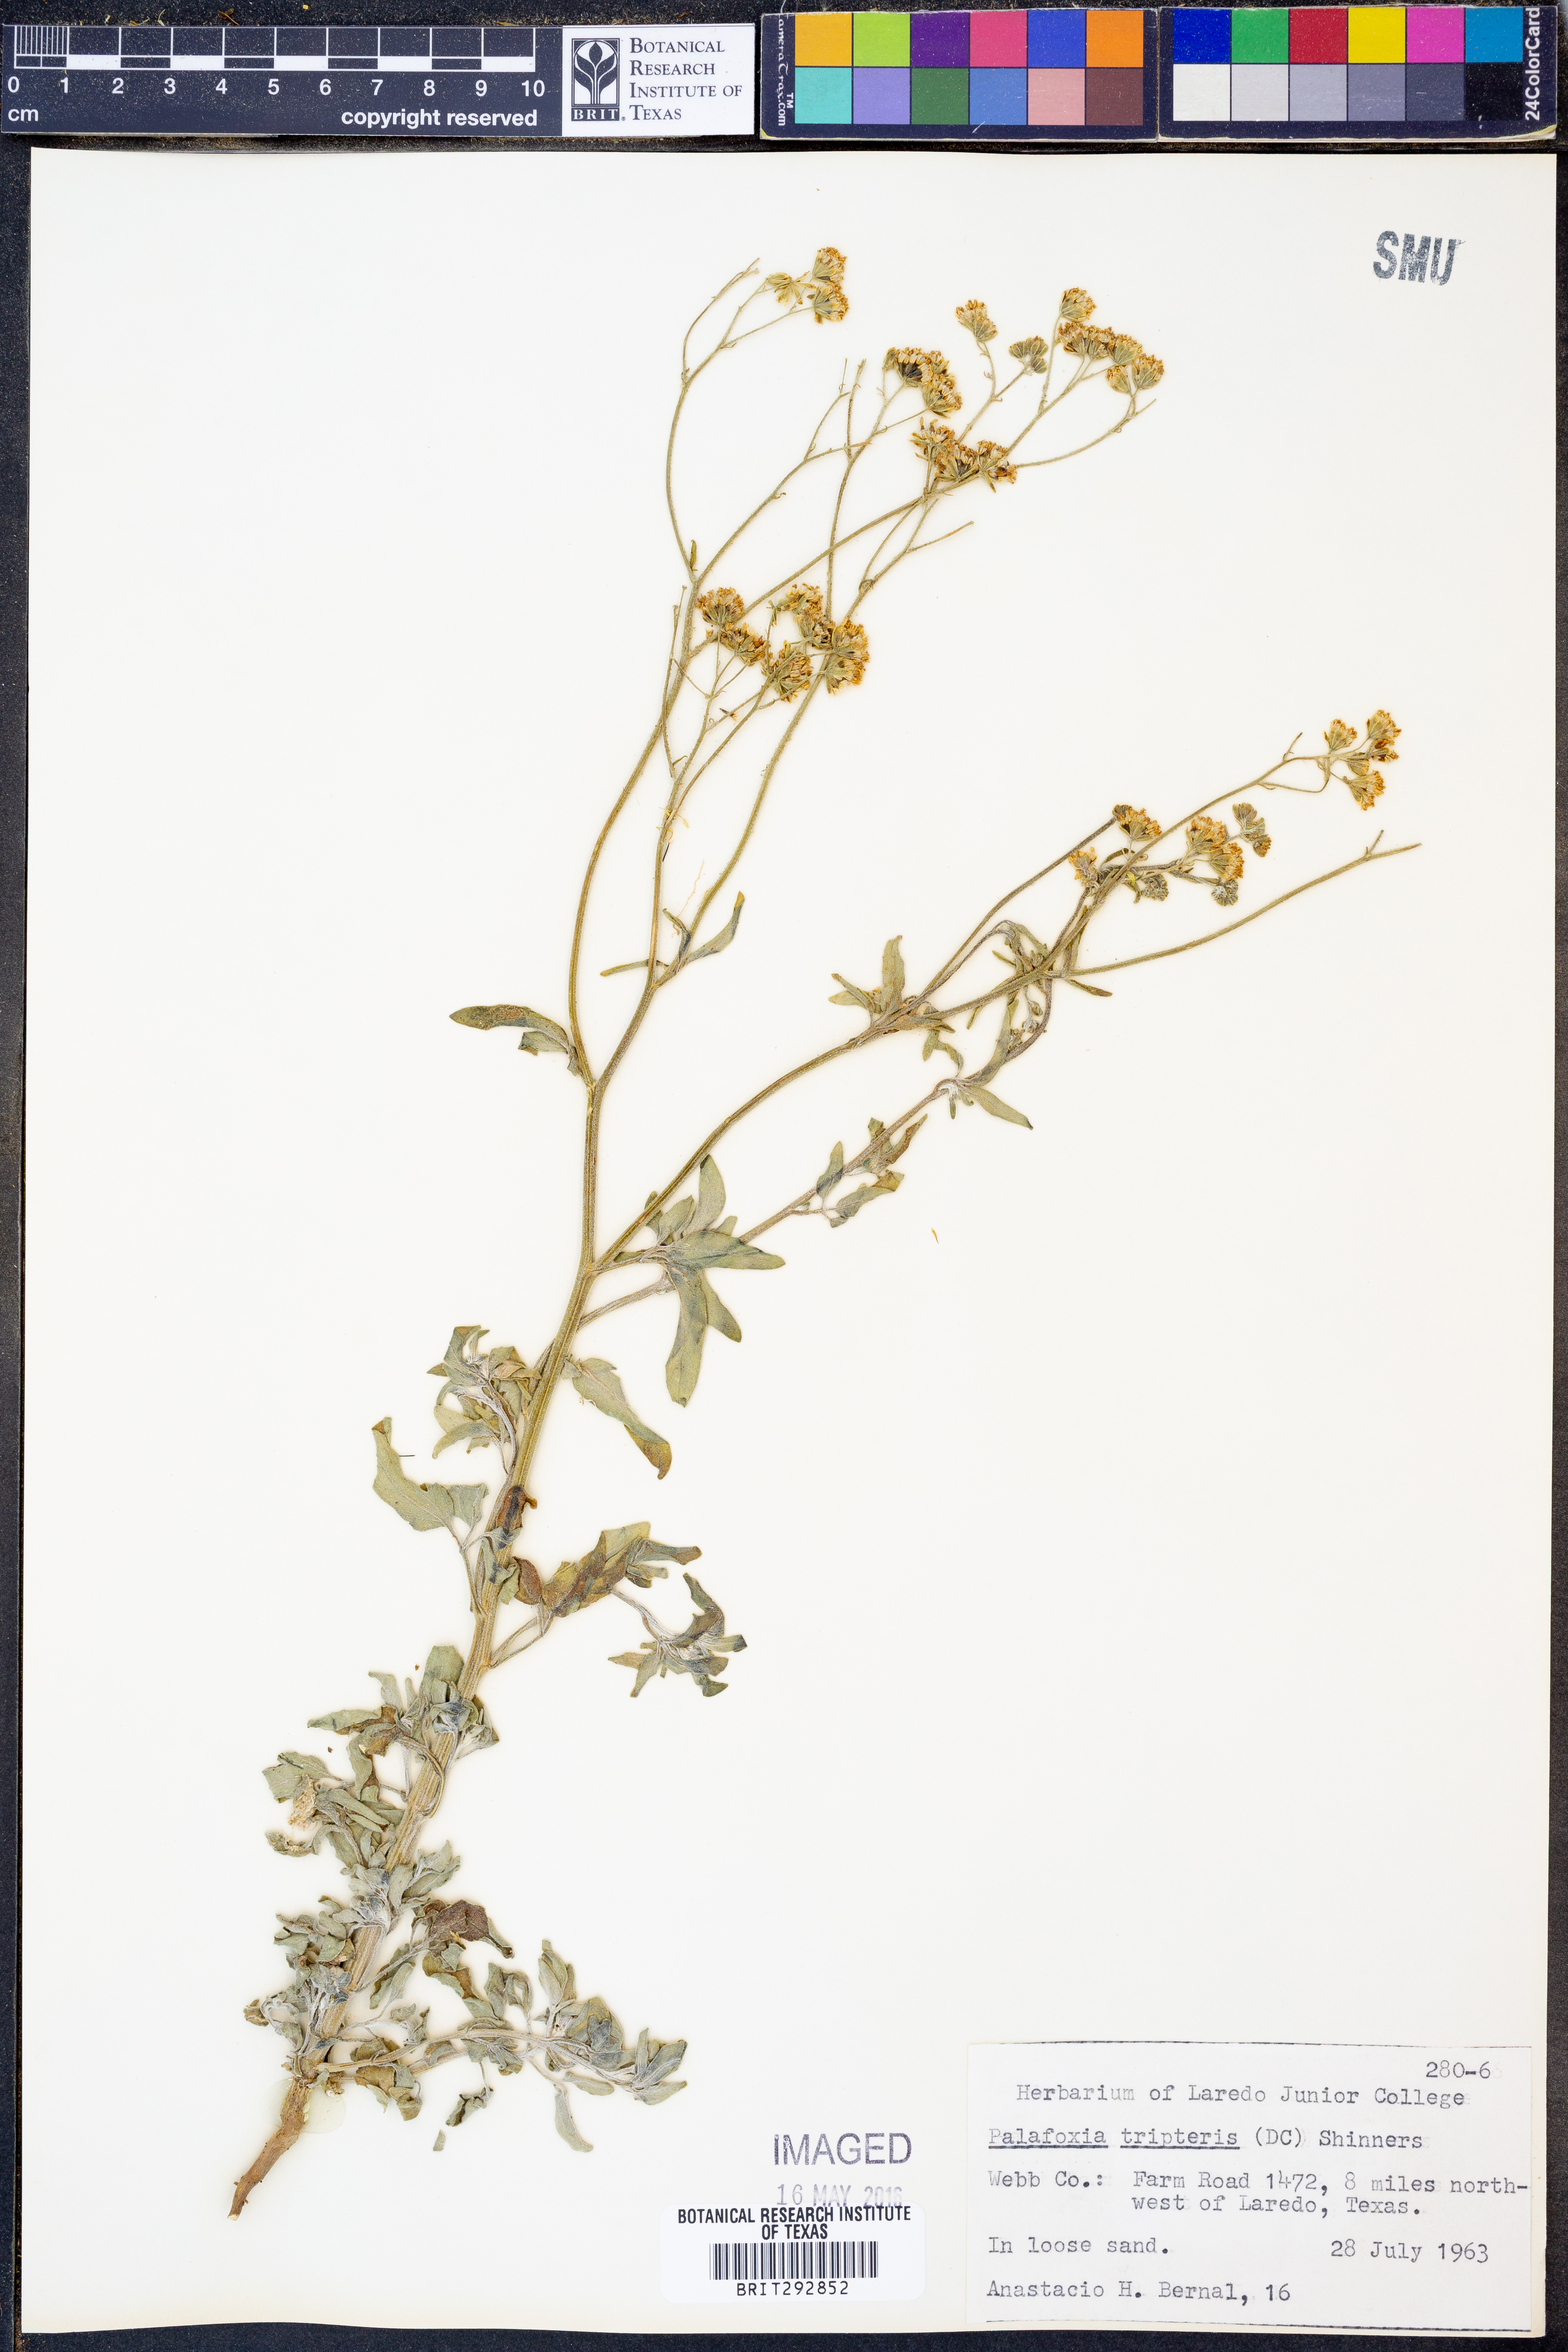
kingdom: Plantae
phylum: Tracheophyta
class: Magnoliopsida
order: Asterales
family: Asteraceae
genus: Florestina
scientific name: Florestina tripteris
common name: Sticky florestina
